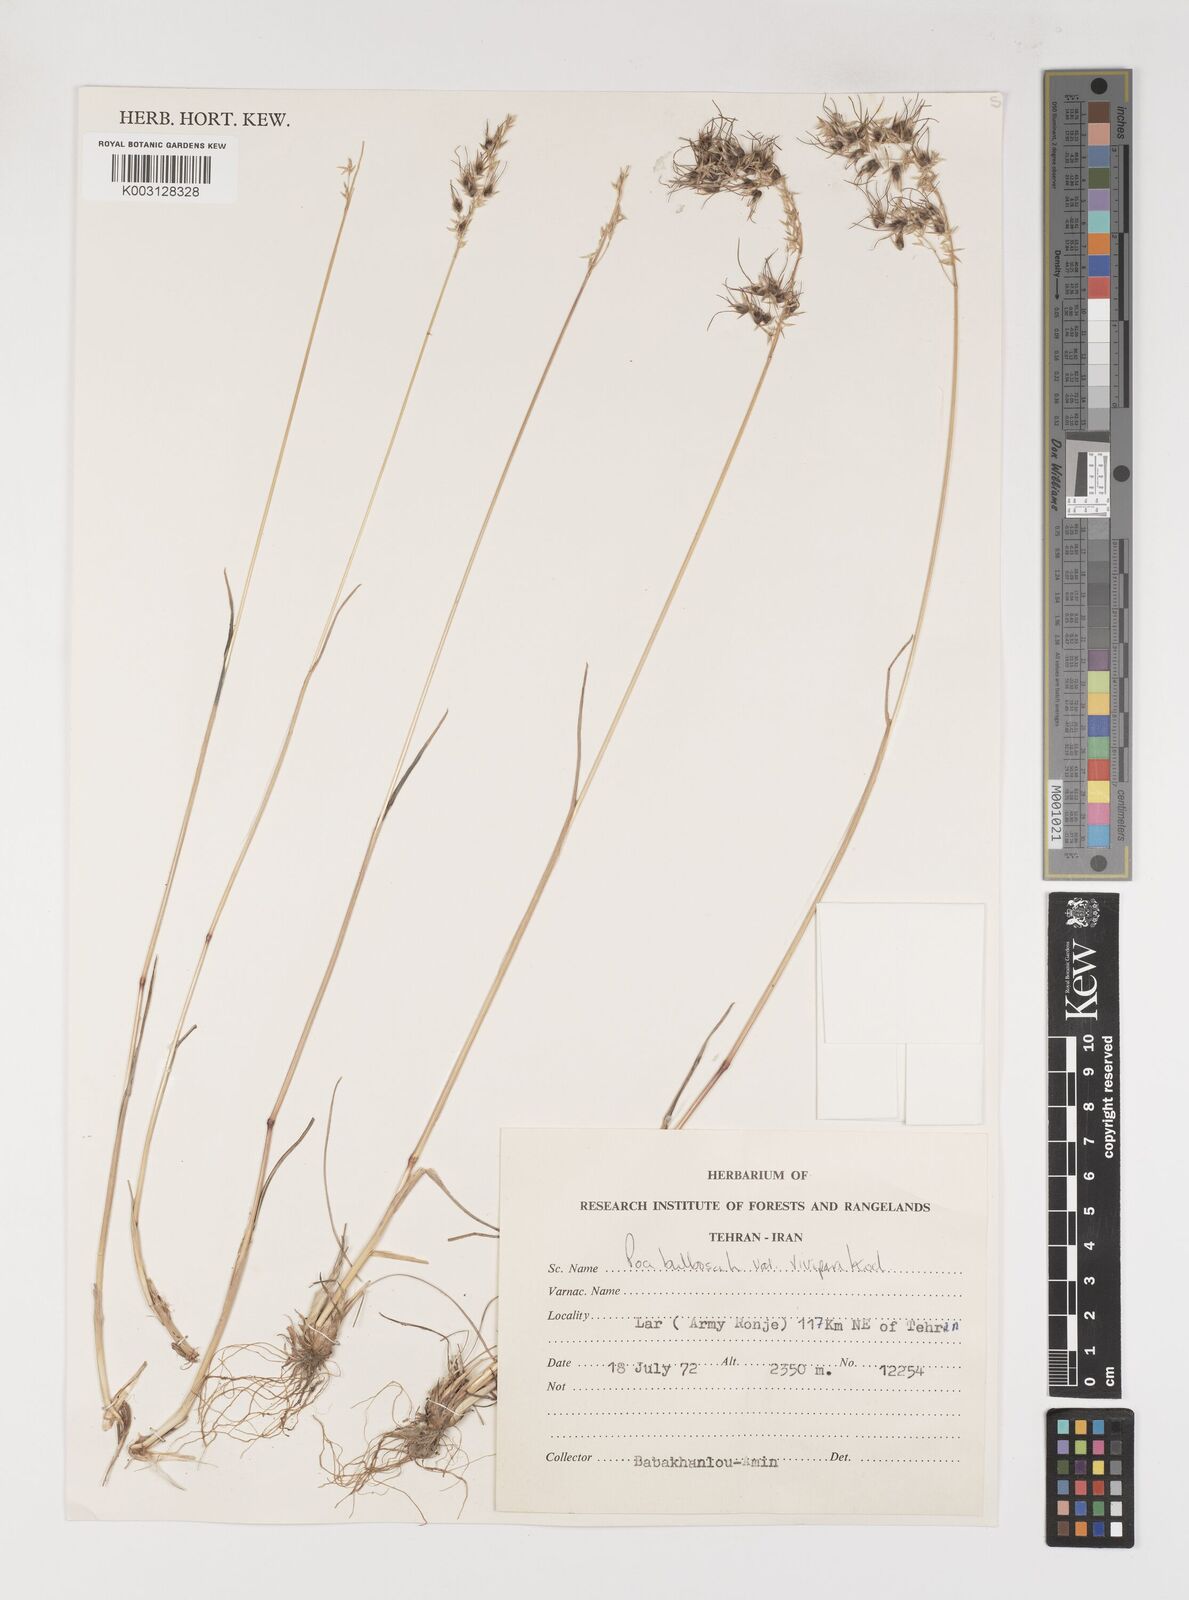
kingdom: Plantae
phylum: Tracheophyta
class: Liliopsida
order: Poales
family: Poaceae
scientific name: Poaceae
